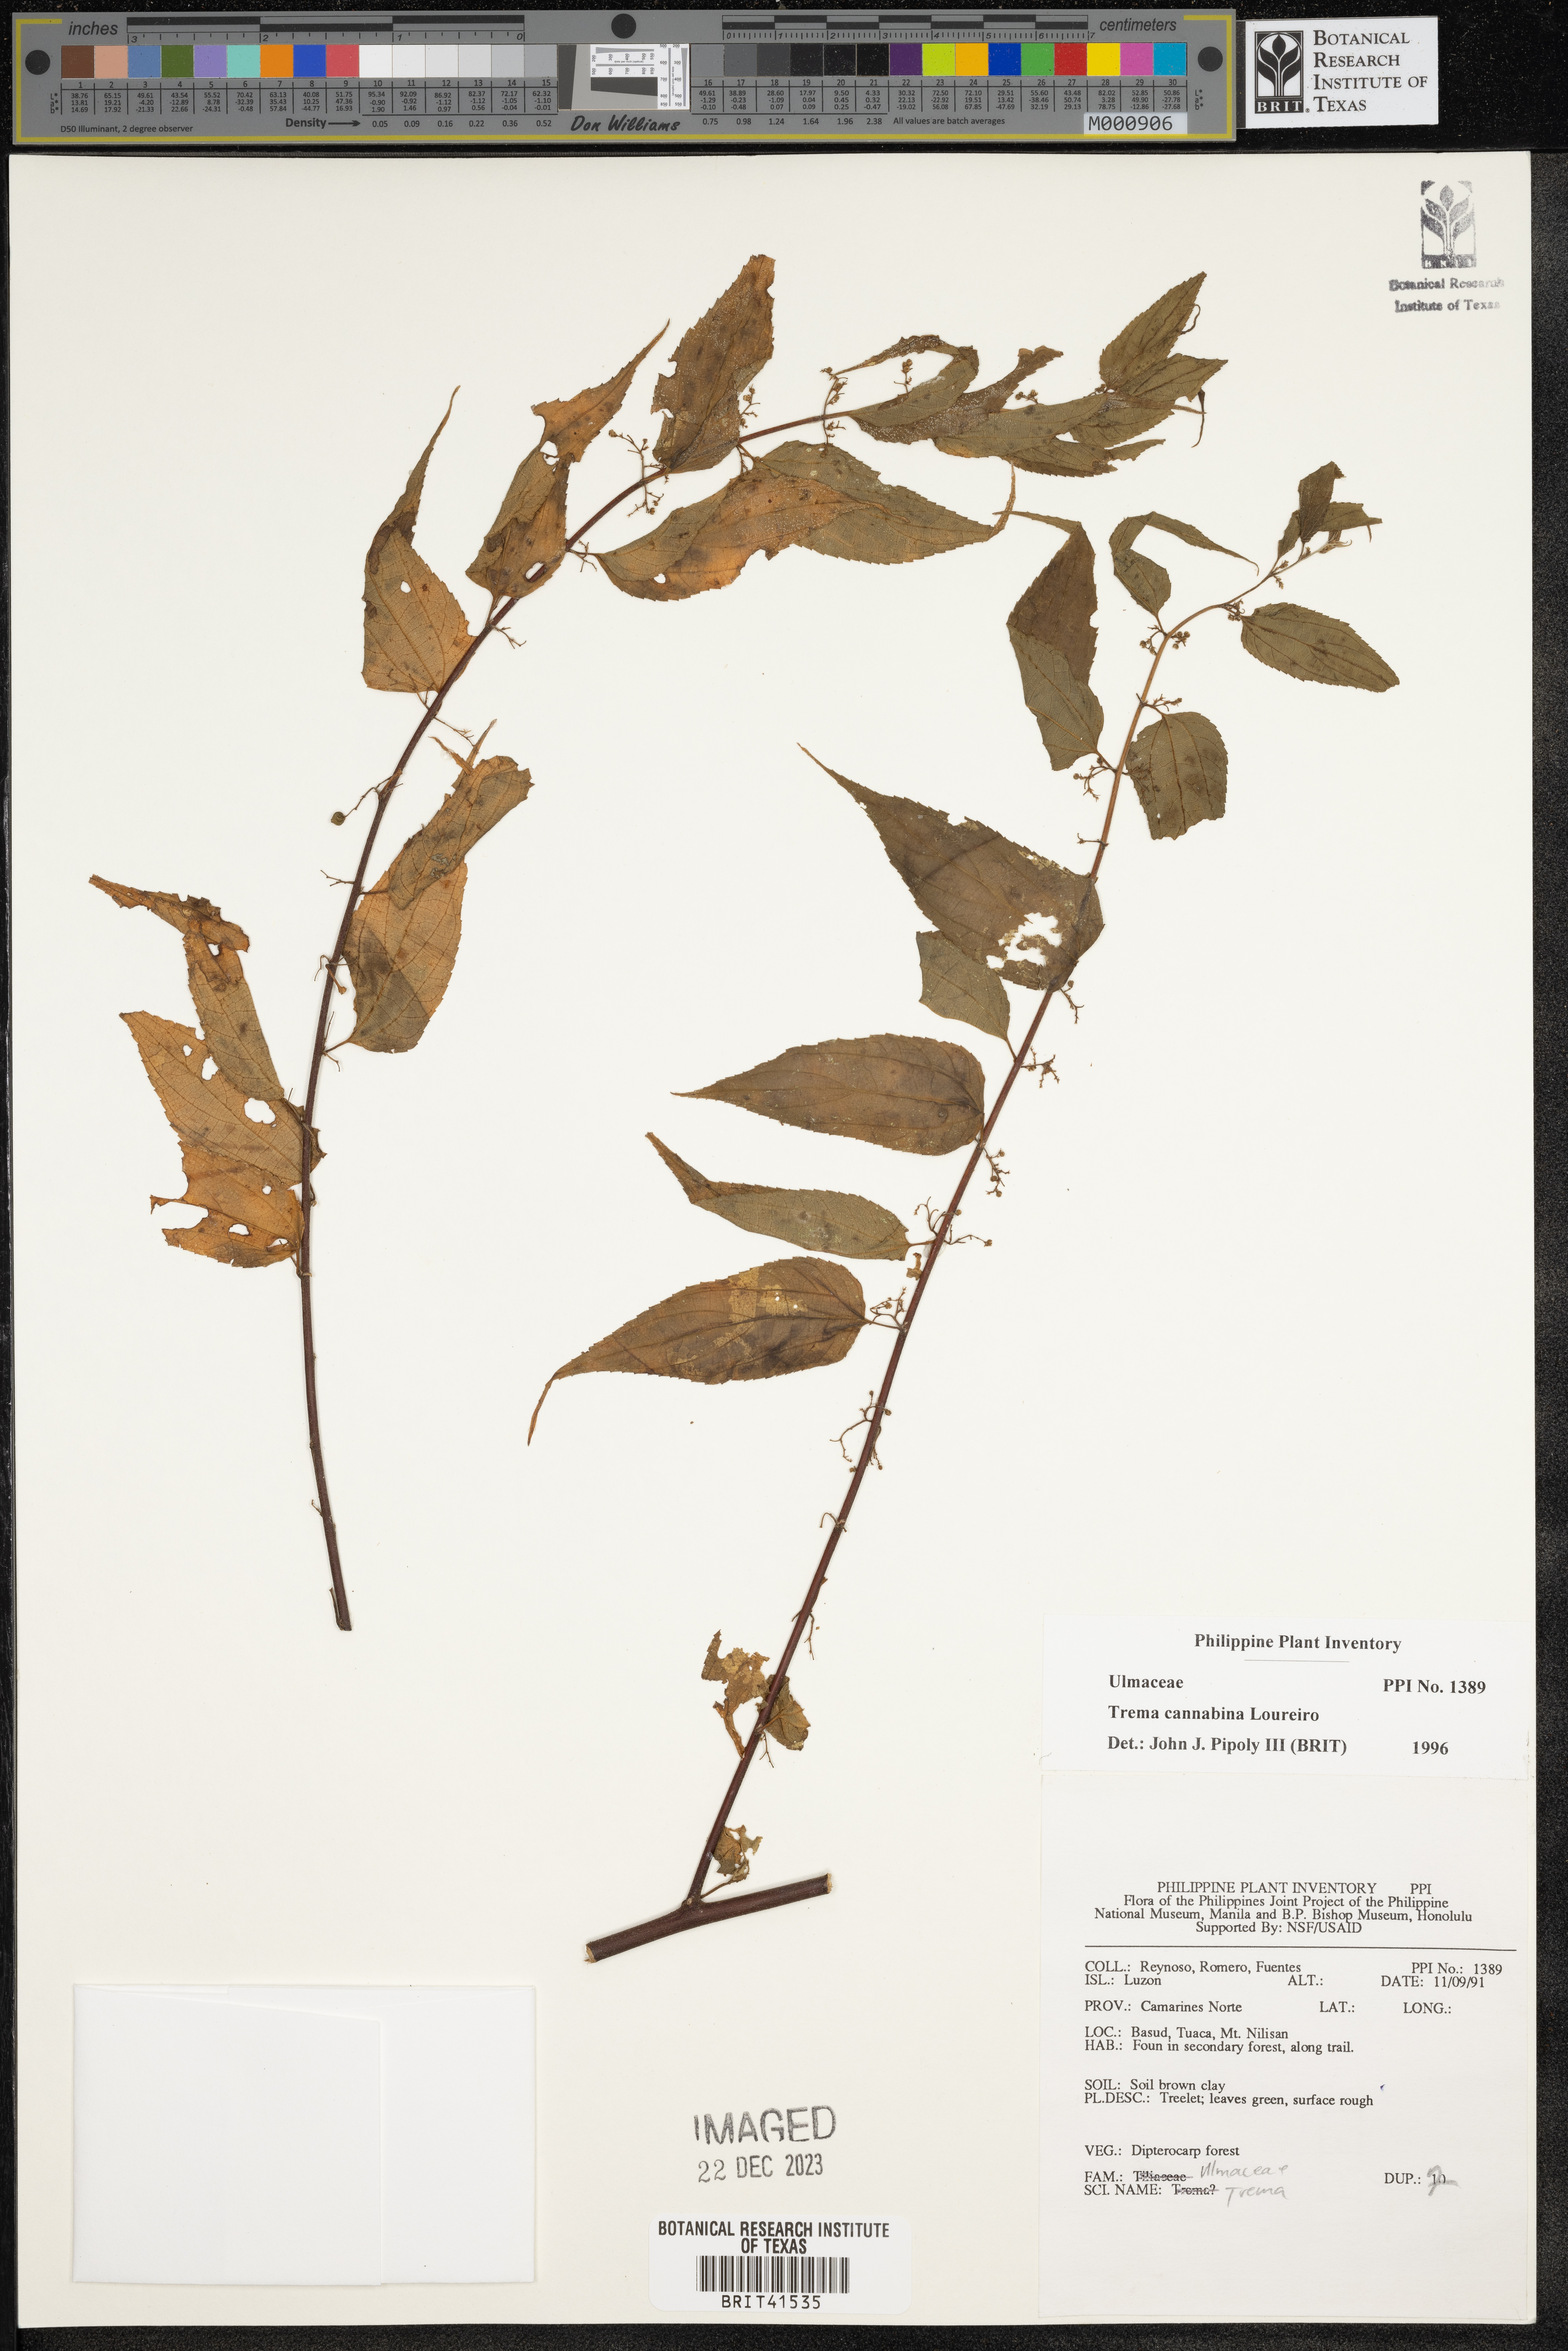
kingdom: Plantae
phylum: Tracheophyta
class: Magnoliopsida
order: Rosales
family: Cannabaceae
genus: Trema
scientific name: Trema cannabina
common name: Poison-peach
